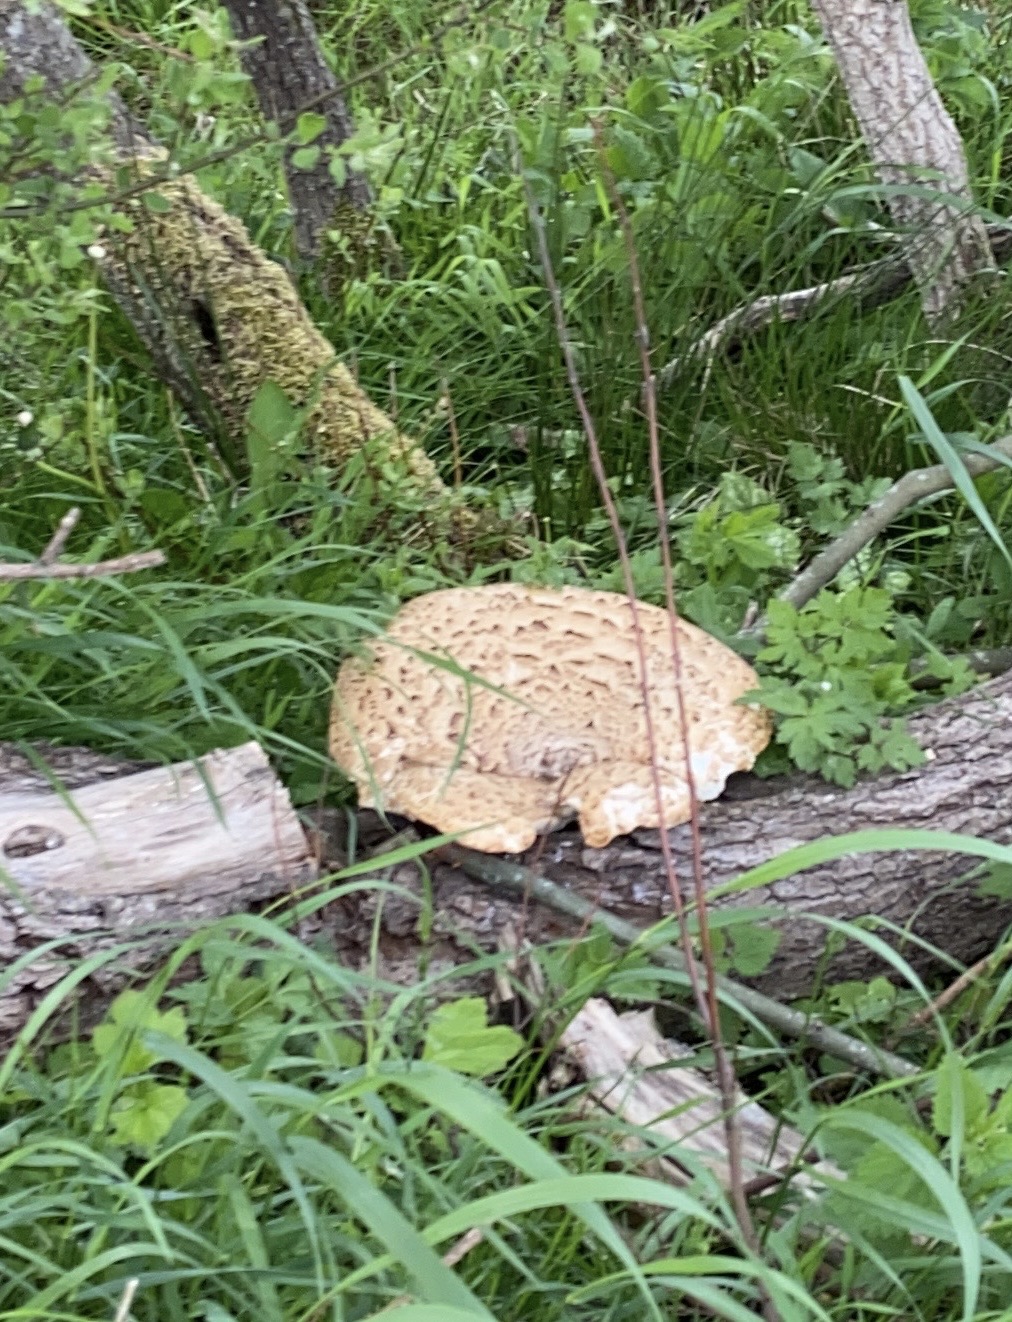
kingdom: Fungi
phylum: Basidiomycota
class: Agaricomycetes
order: Polyporales
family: Polyporaceae
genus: Cerioporus
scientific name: Cerioporus squamosus
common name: skællet stilkporesvamp
